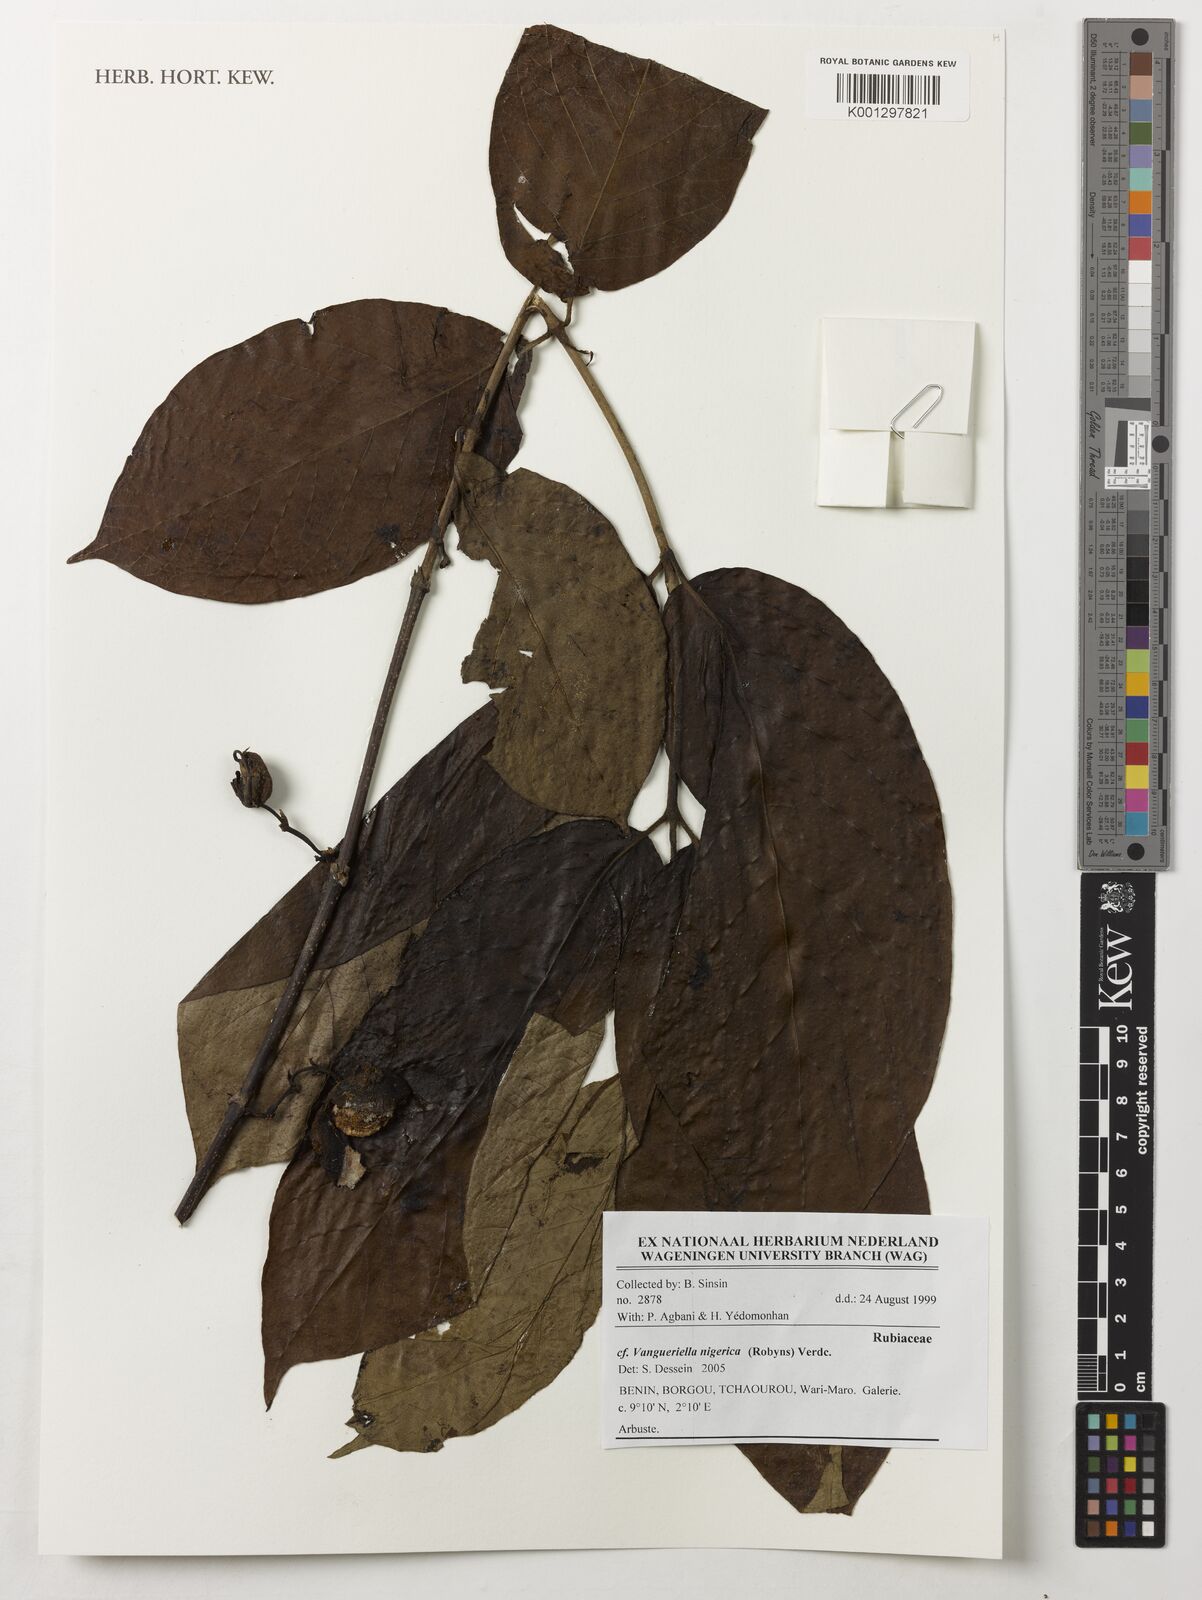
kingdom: Plantae
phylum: Tracheophyta
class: Magnoliopsida
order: Gentianales
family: Rubiaceae
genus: Vangueriella
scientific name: Vangueriella nigerica
